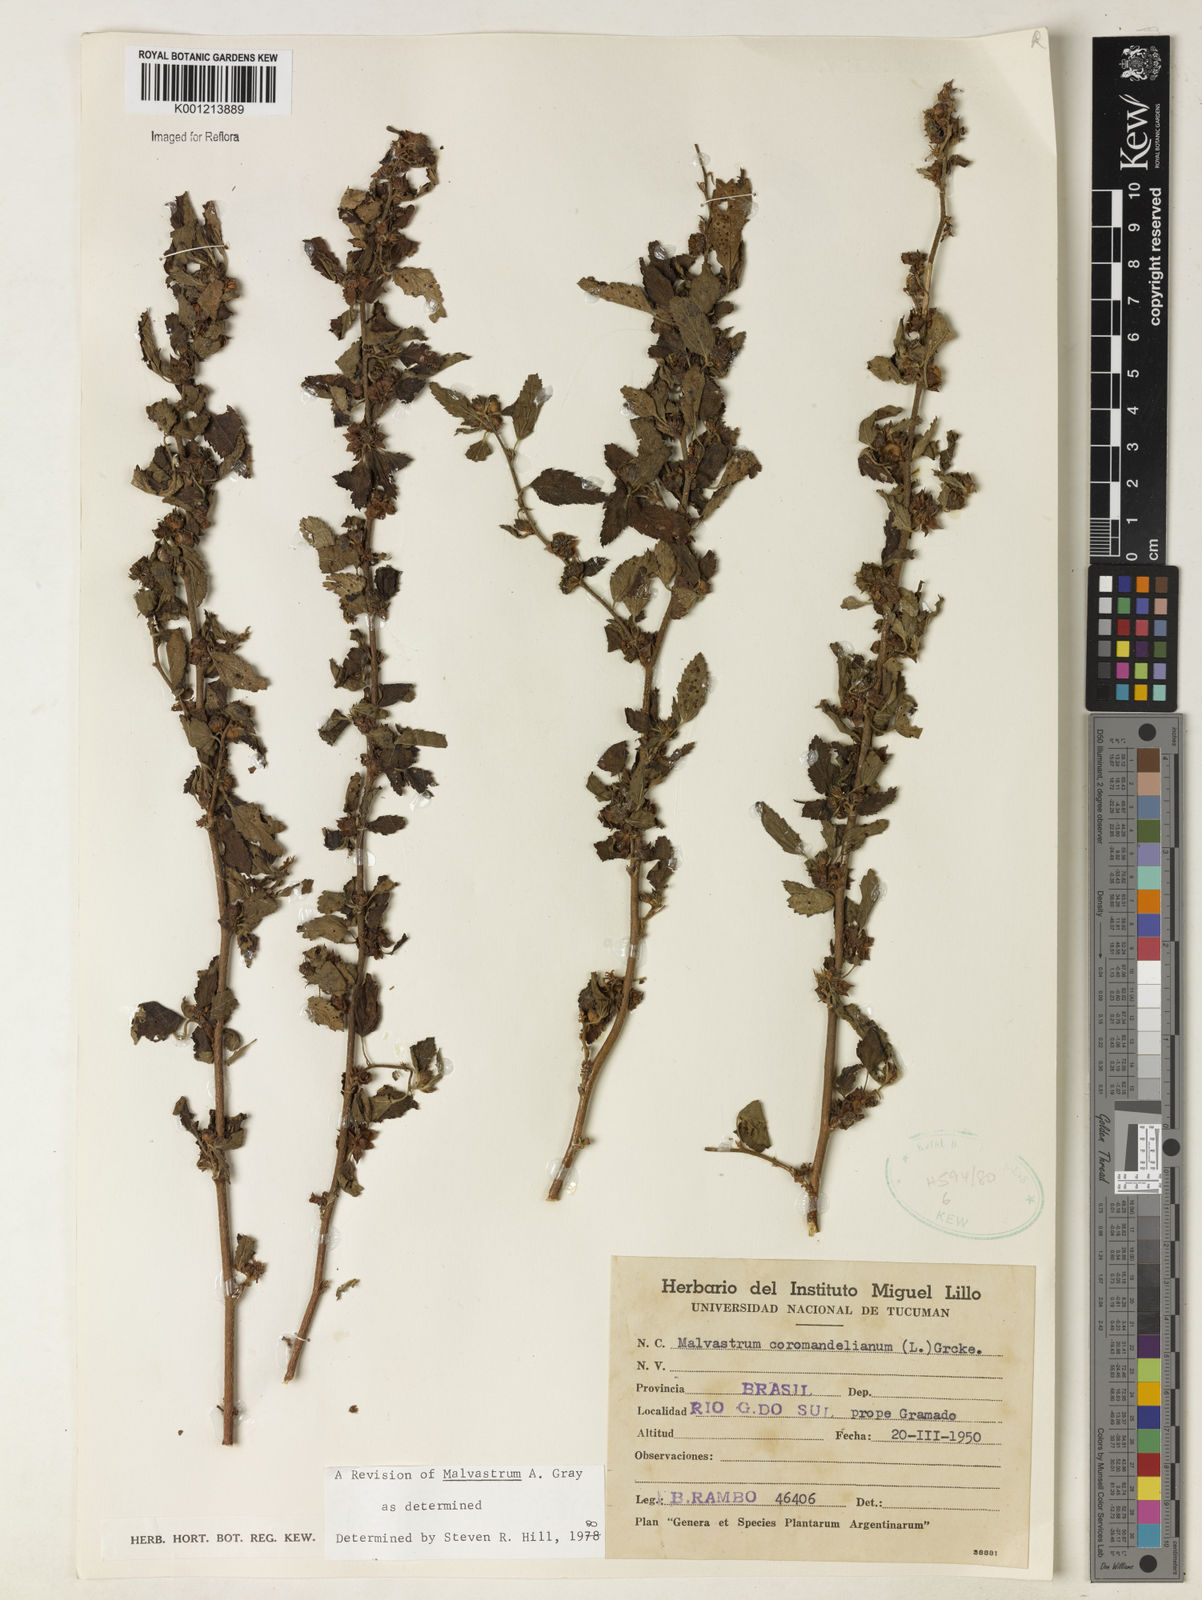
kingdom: Plantae
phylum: Tracheophyta
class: Magnoliopsida
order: Malvales
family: Malvaceae
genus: Malvastrum
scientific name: Malvastrum coromandelianum
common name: Threelobe false mallow
